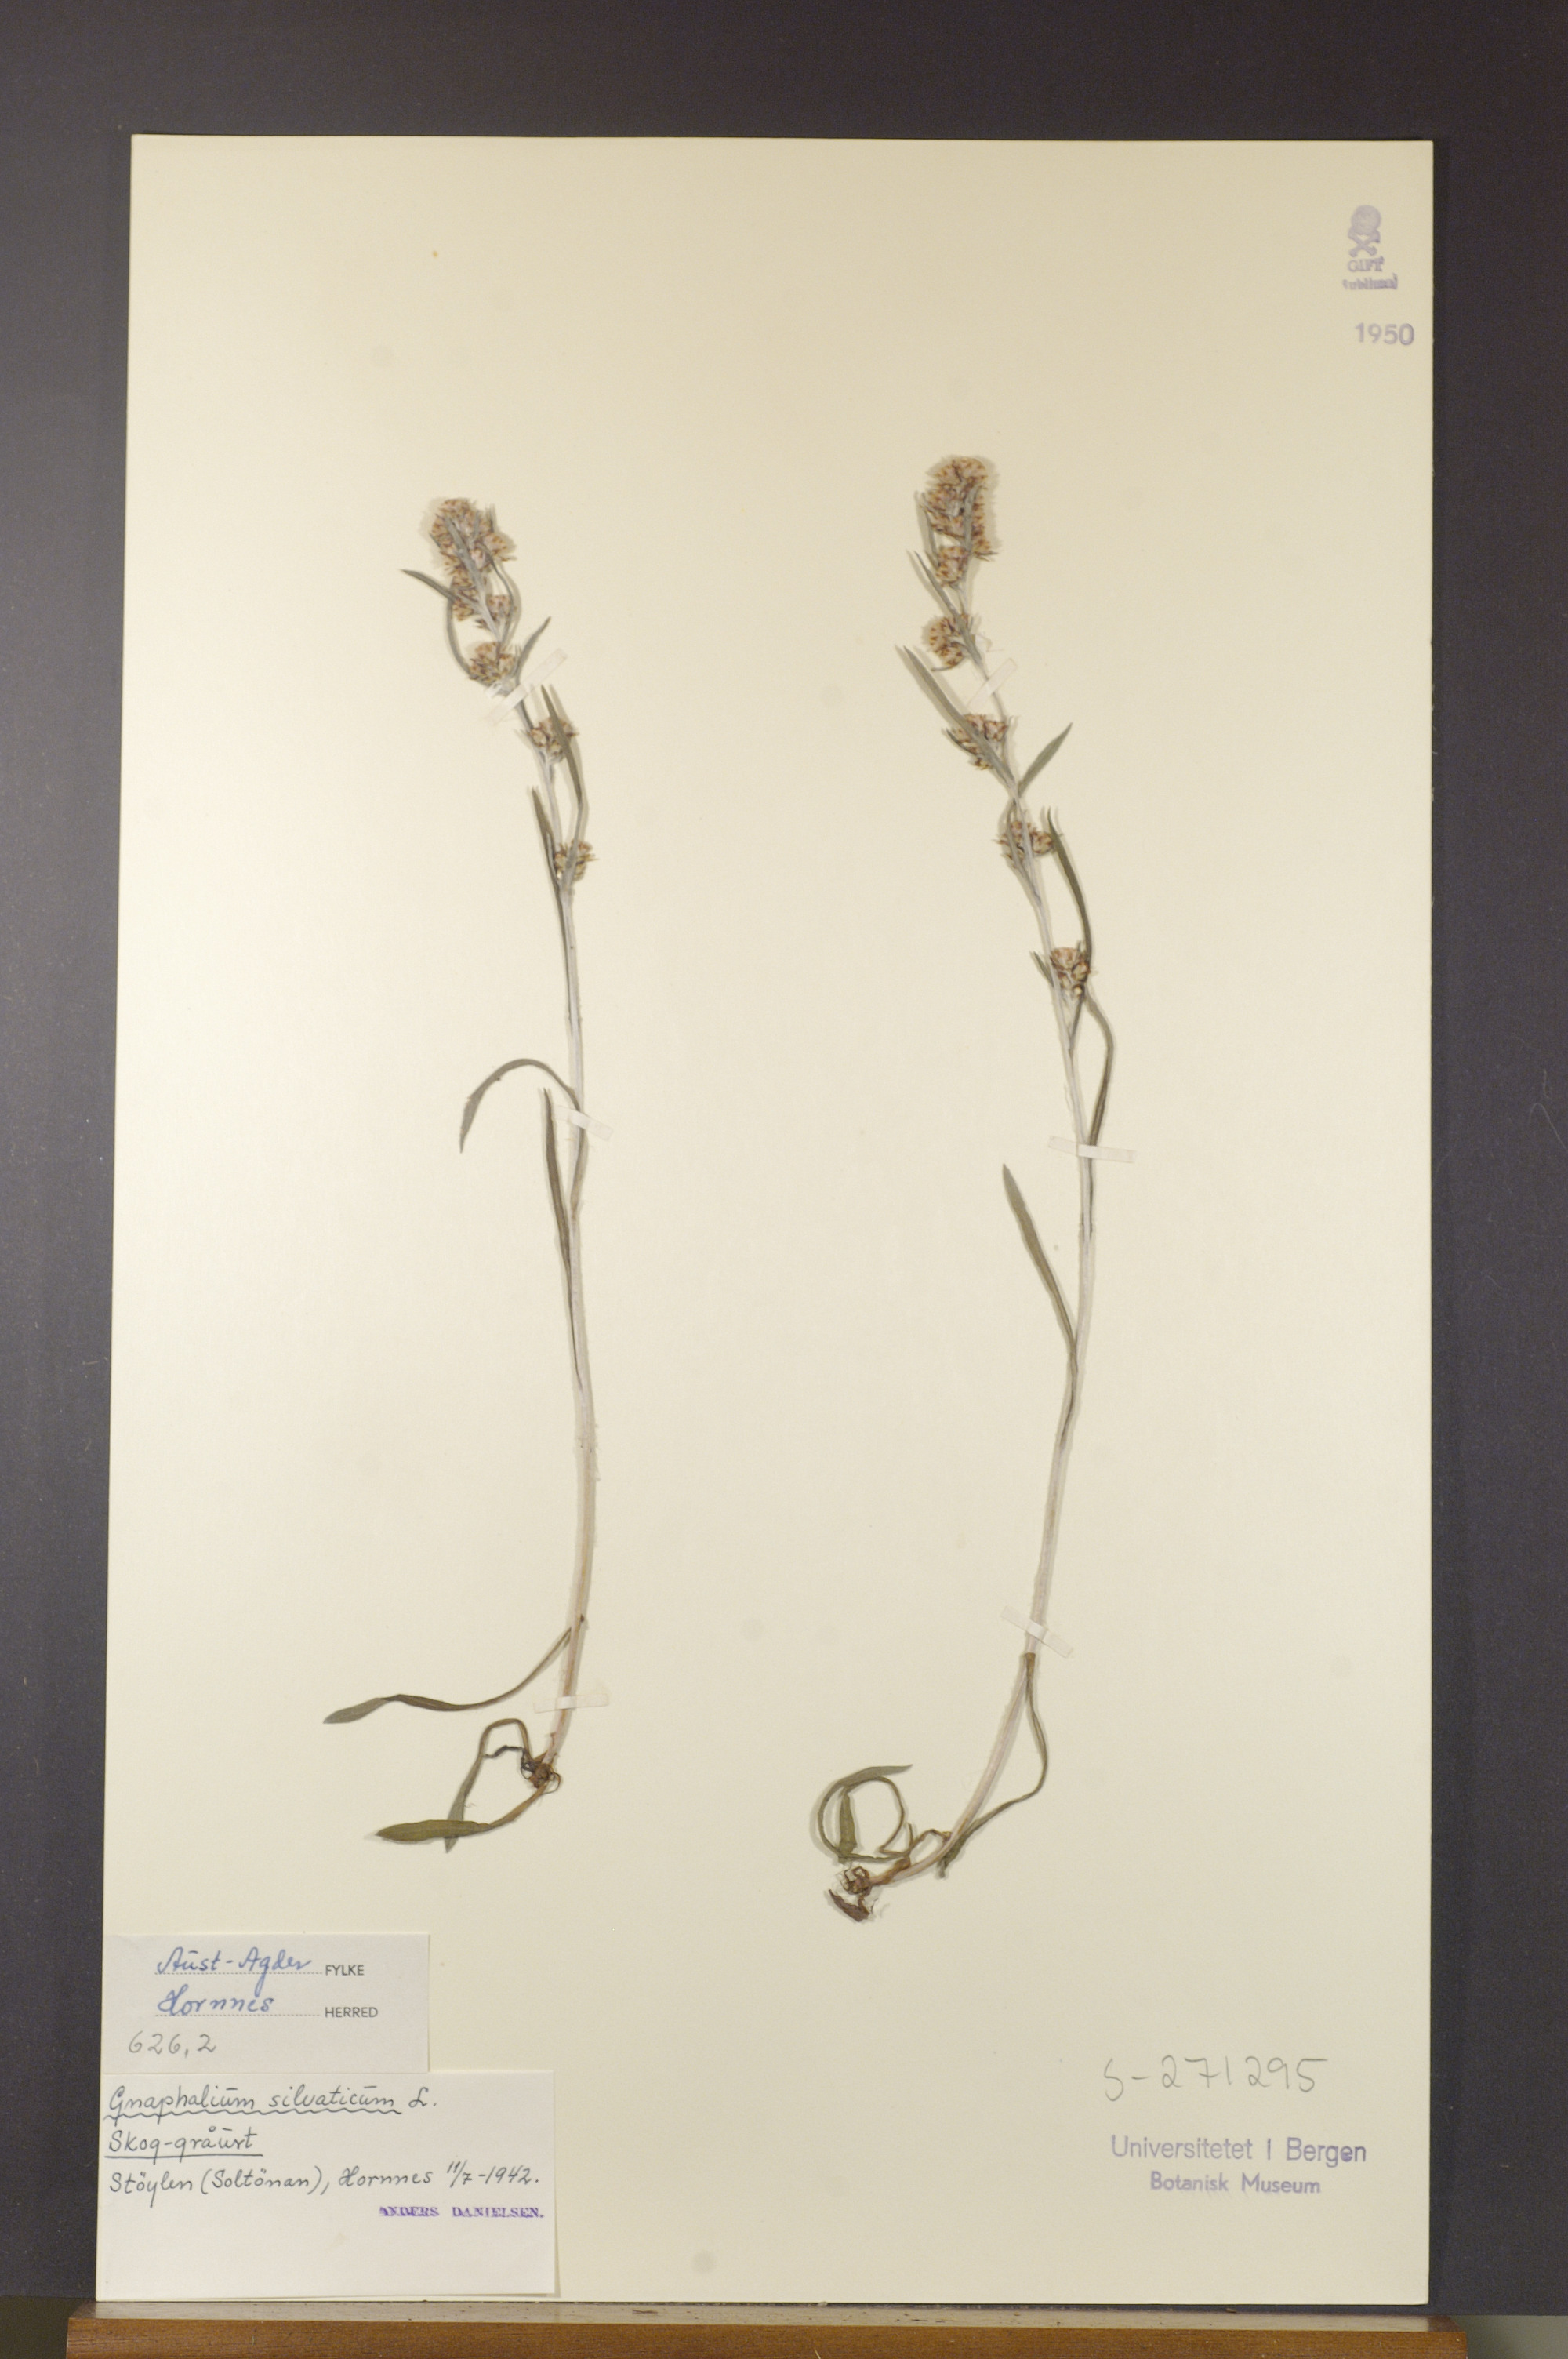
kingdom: Plantae
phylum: Tracheophyta
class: Magnoliopsida
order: Asterales
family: Asteraceae
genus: Omalotheca
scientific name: Omalotheca sylvatica
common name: Heath cudweed
